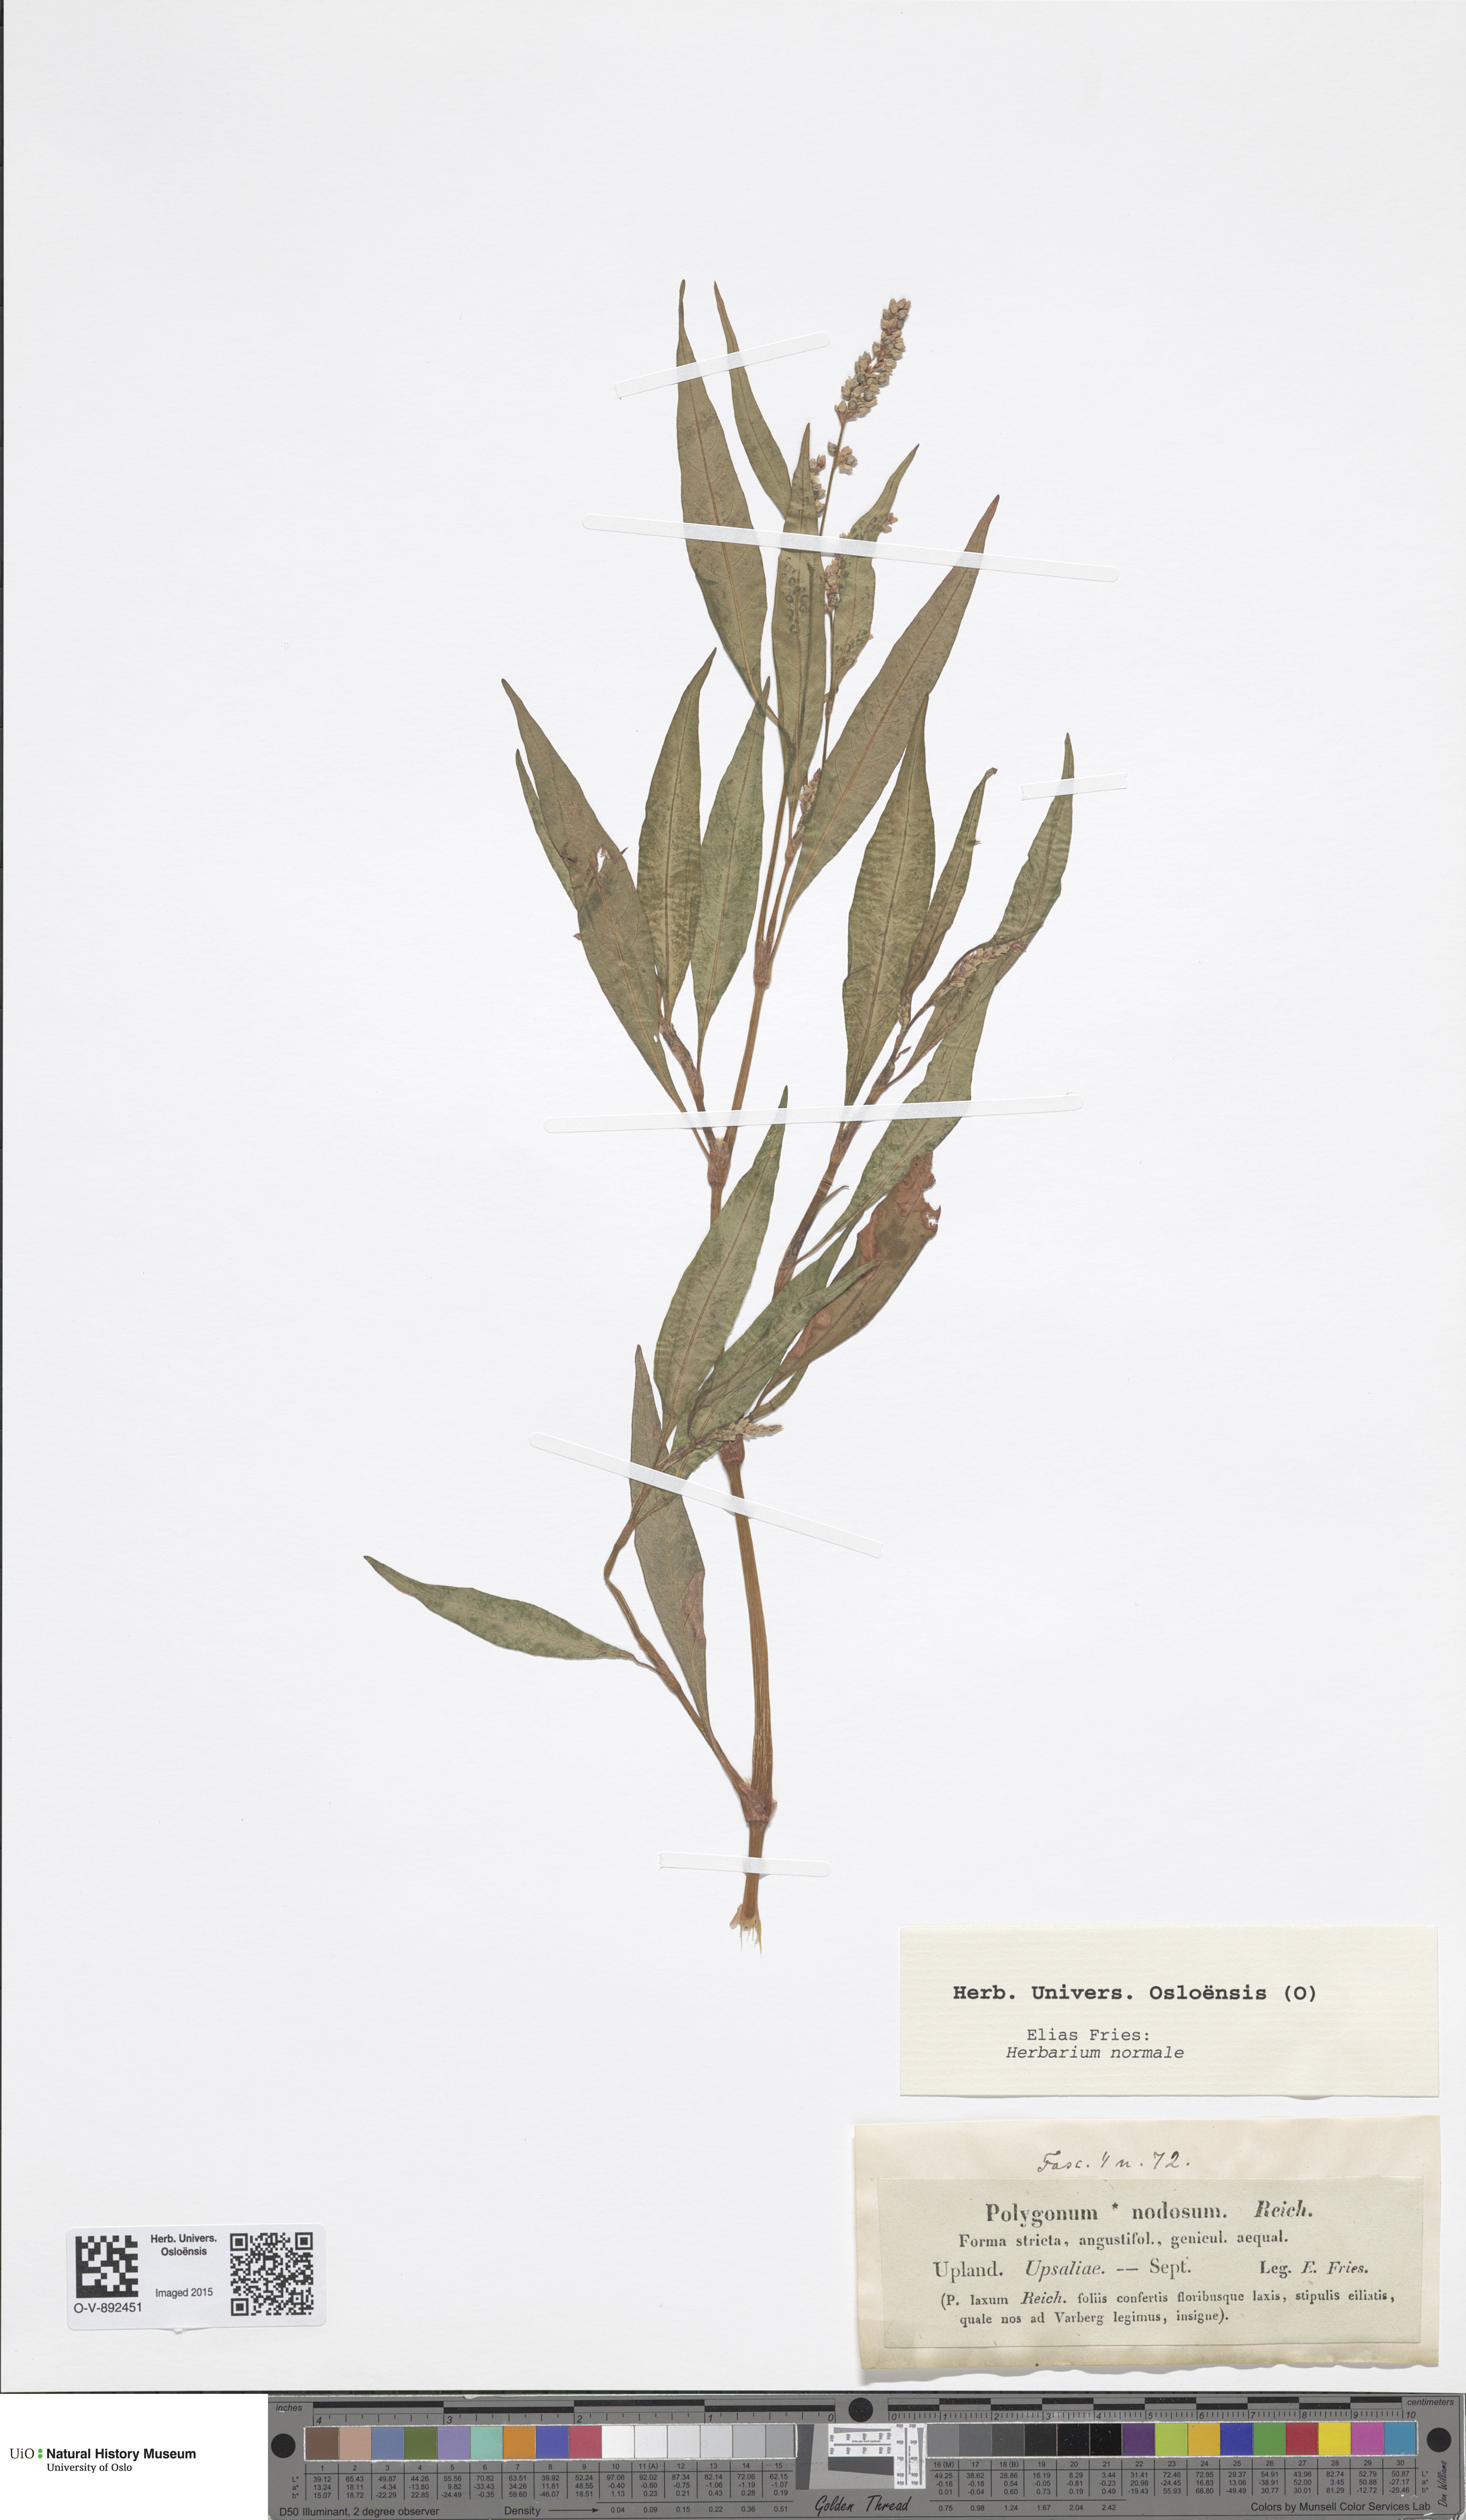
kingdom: Plantae
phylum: Tracheophyta
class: Magnoliopsida
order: Caryophyllales
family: Polygonaceae
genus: Persicaria
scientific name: Persicaria lapathifolia
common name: Curlytop knotweed
